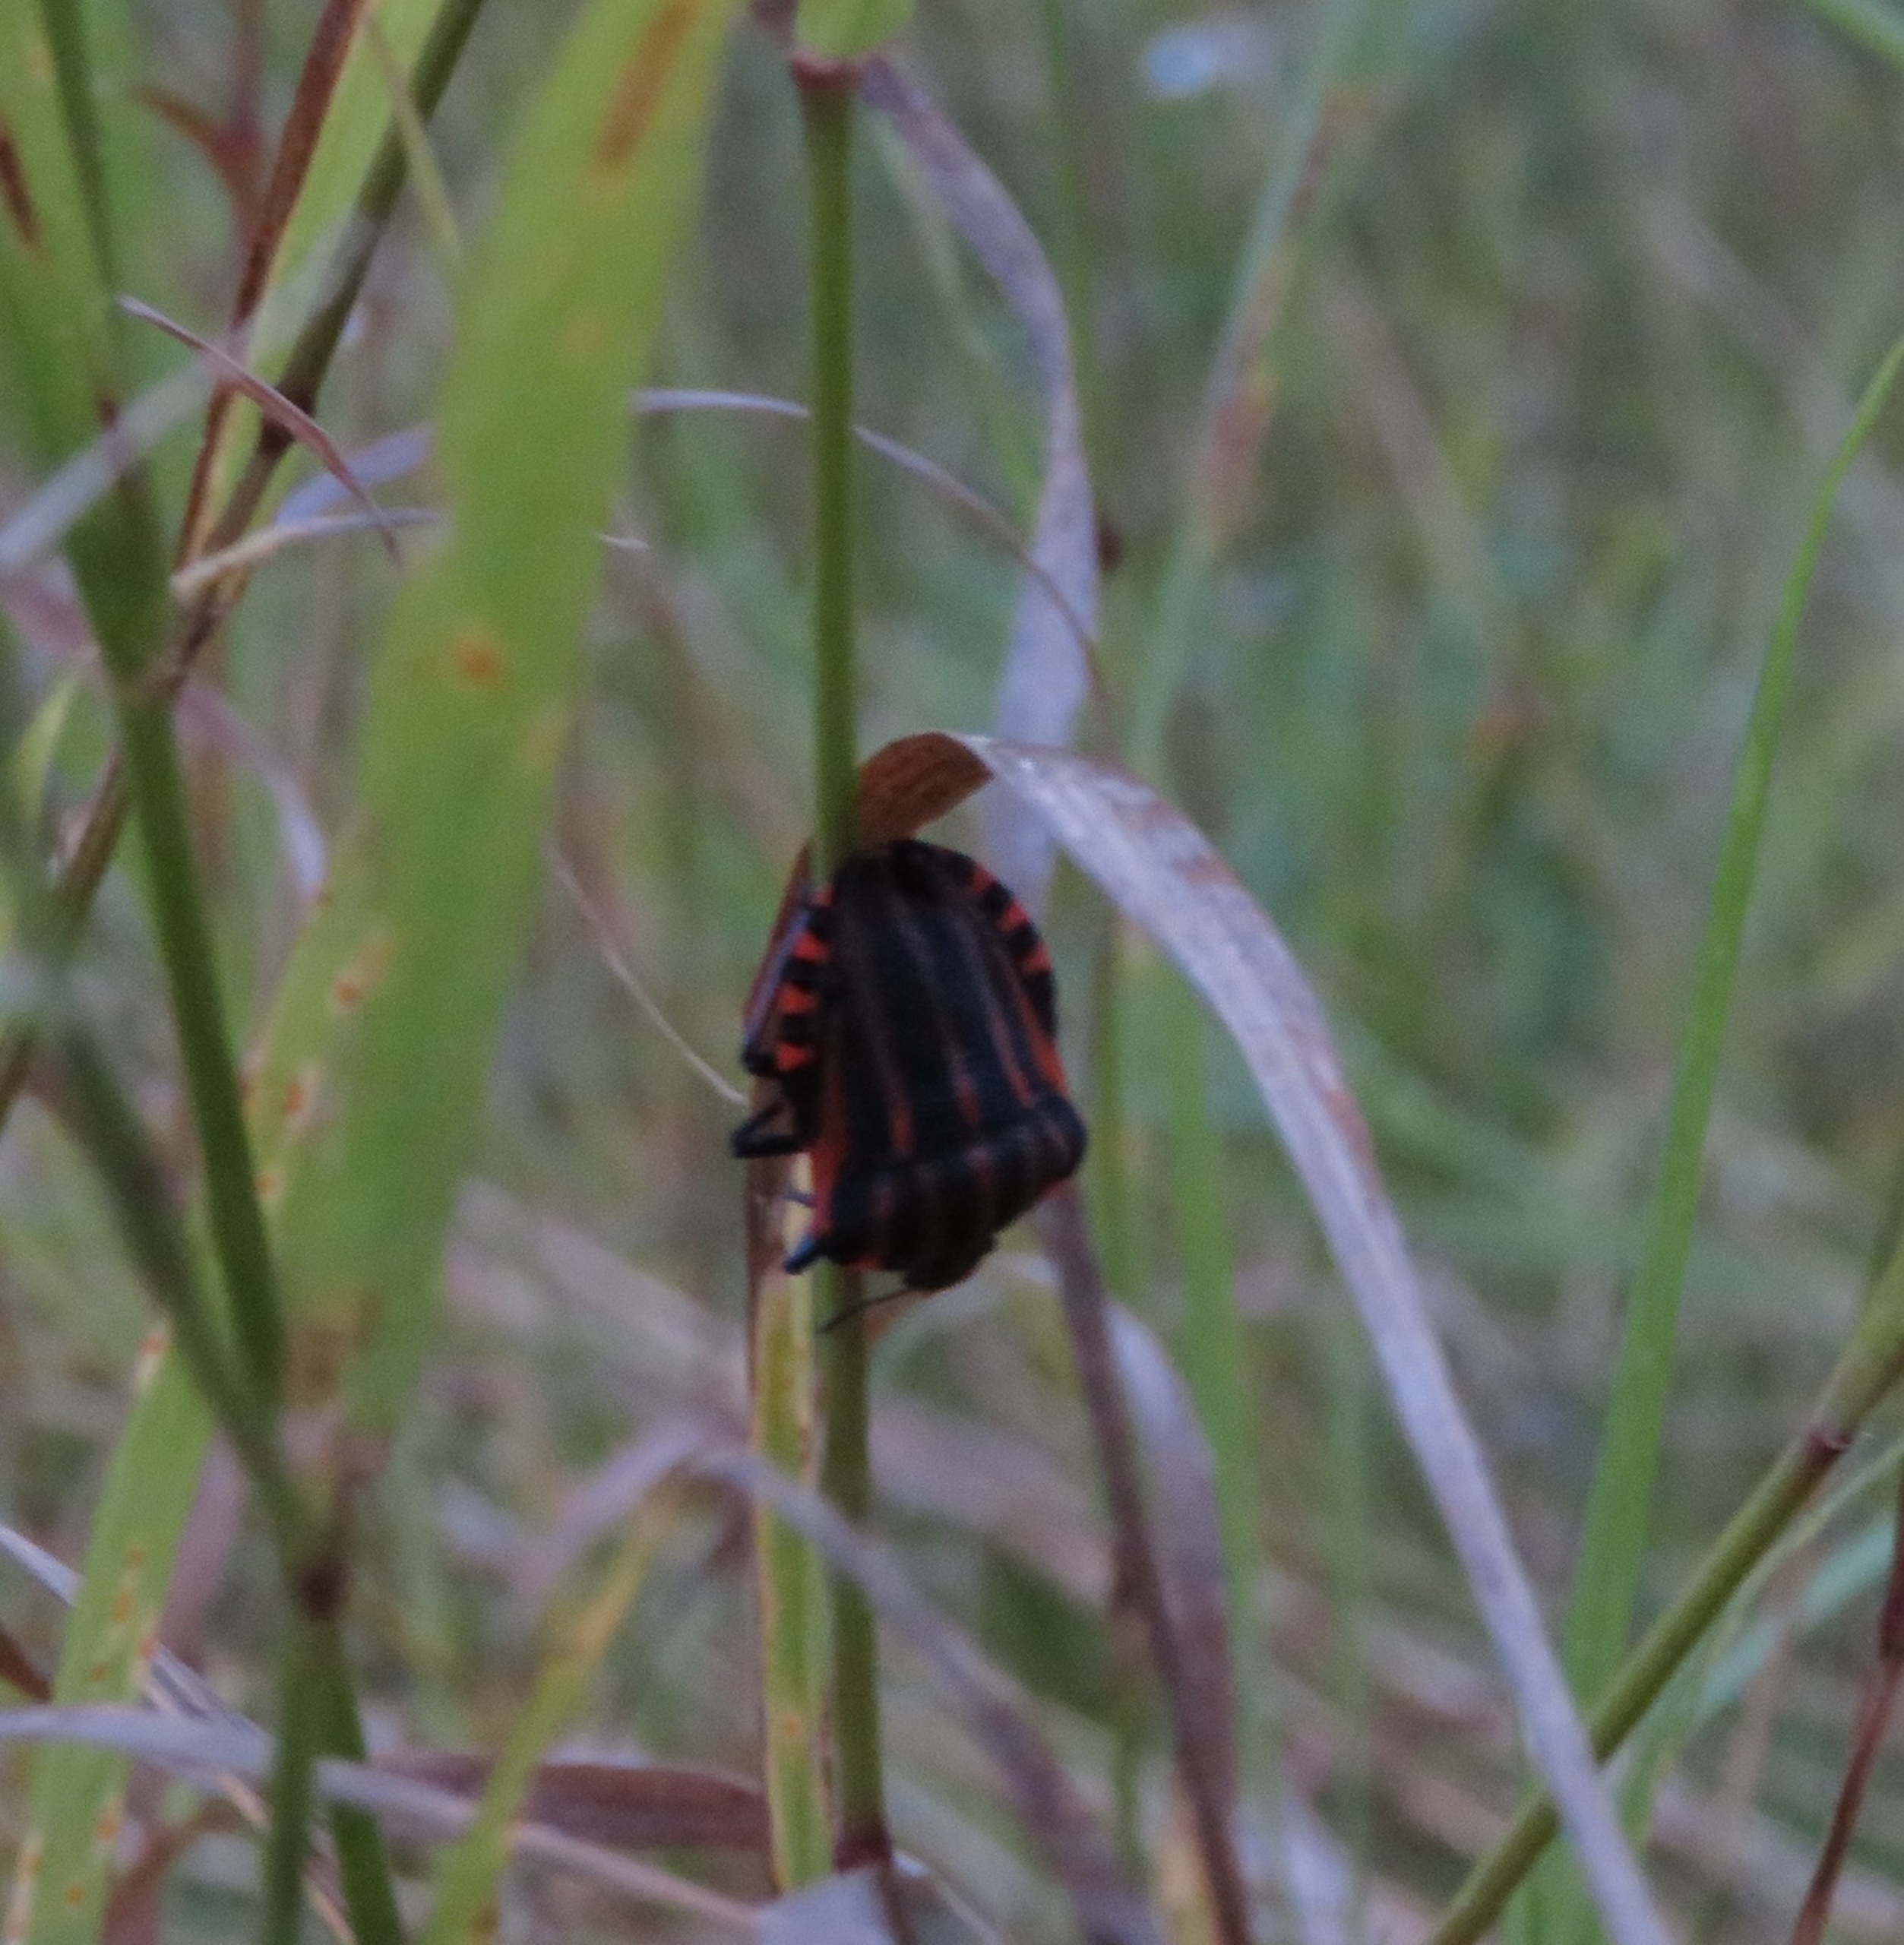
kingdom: Animalia
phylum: Arthropoda
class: Insecta
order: Hemiptera
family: Pentatomidae
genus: Graphosoma
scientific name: Graphosoma italicum
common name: Stribetæge
